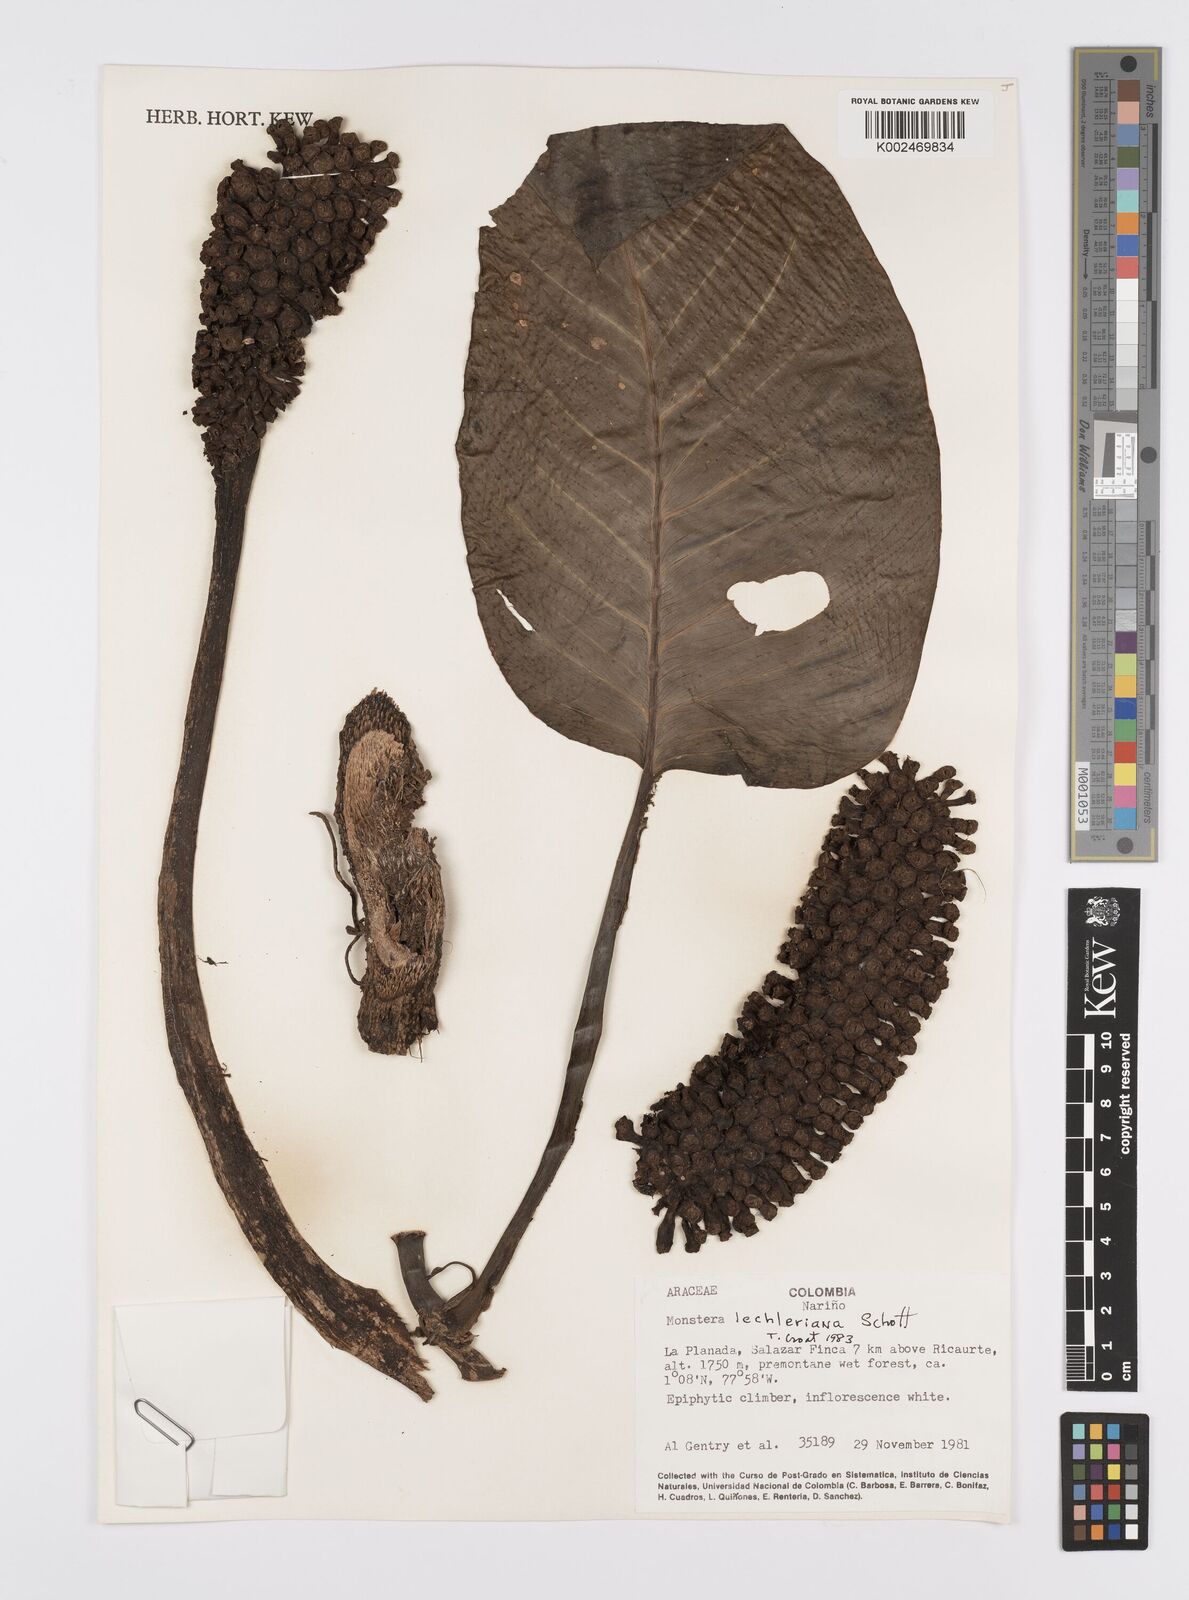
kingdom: Plantae
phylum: Tracheophyta
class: Liliopsida
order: Alismatales
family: Araceae
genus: Monstera
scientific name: Monstera lechleriana
